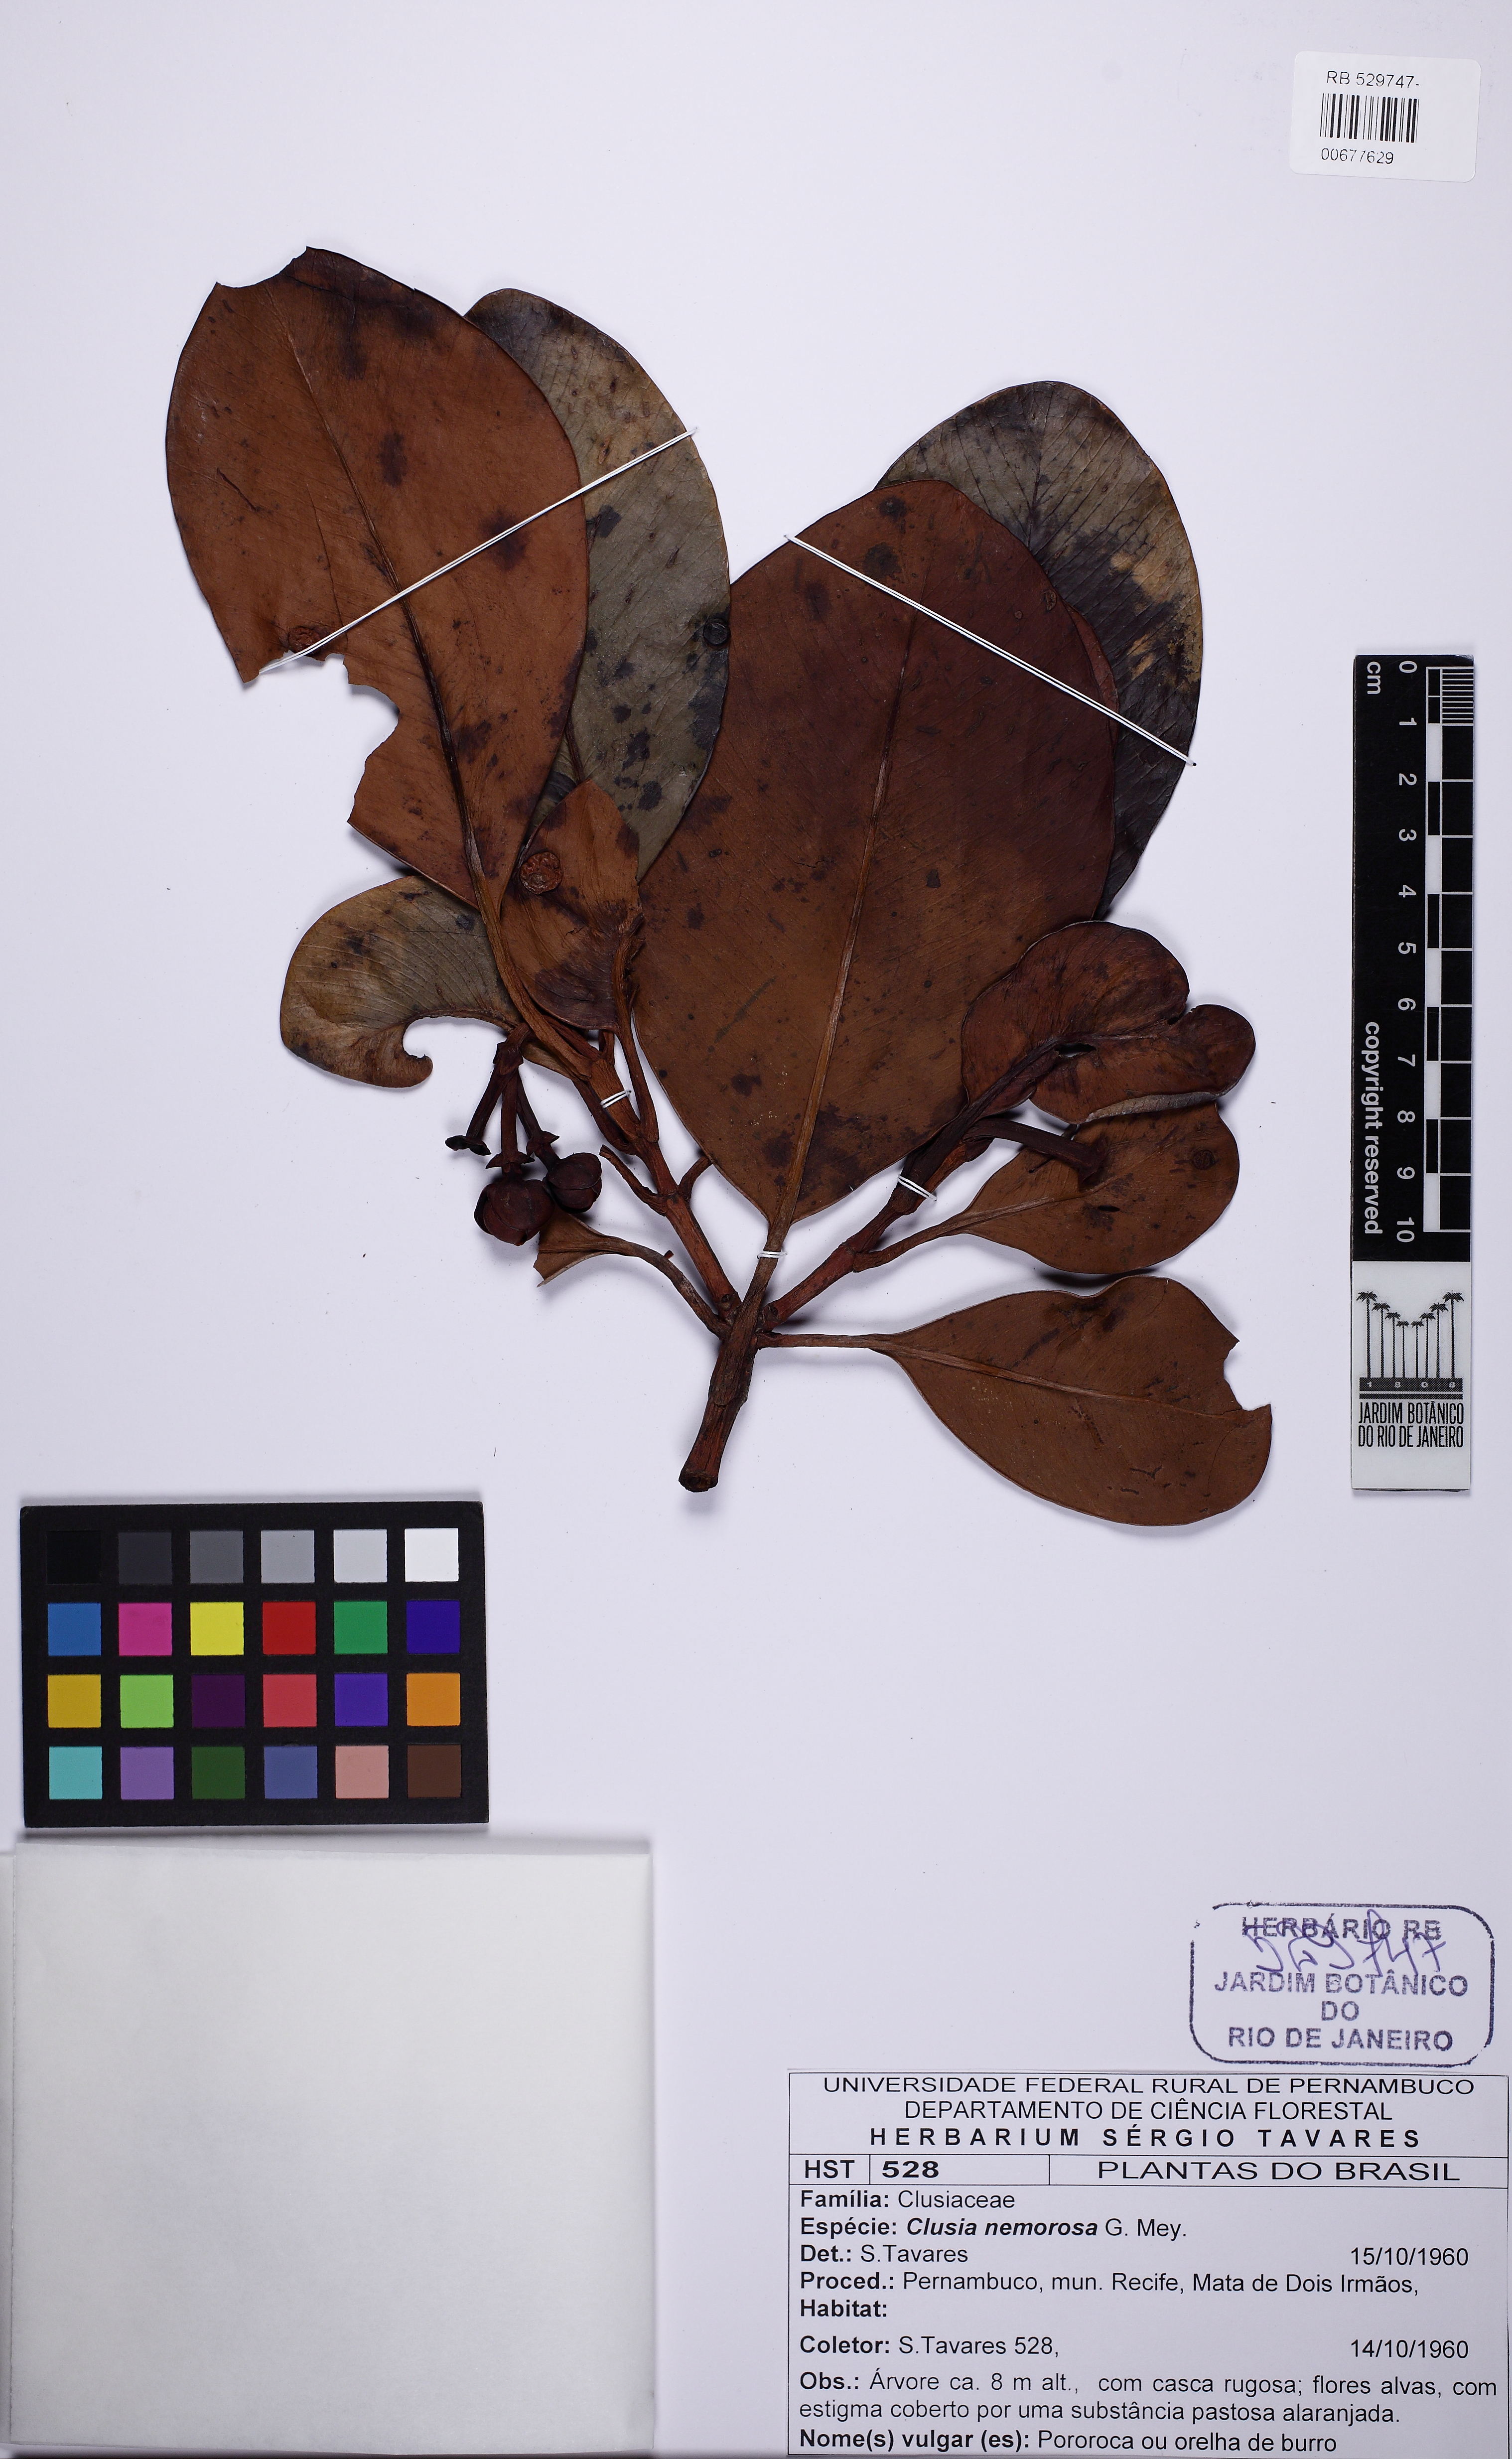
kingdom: Plantae
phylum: Tracheophyta
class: Magnoliopsida
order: Malpighiales
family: Clusiaceae
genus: Clusia
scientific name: Clusia nemorosa
